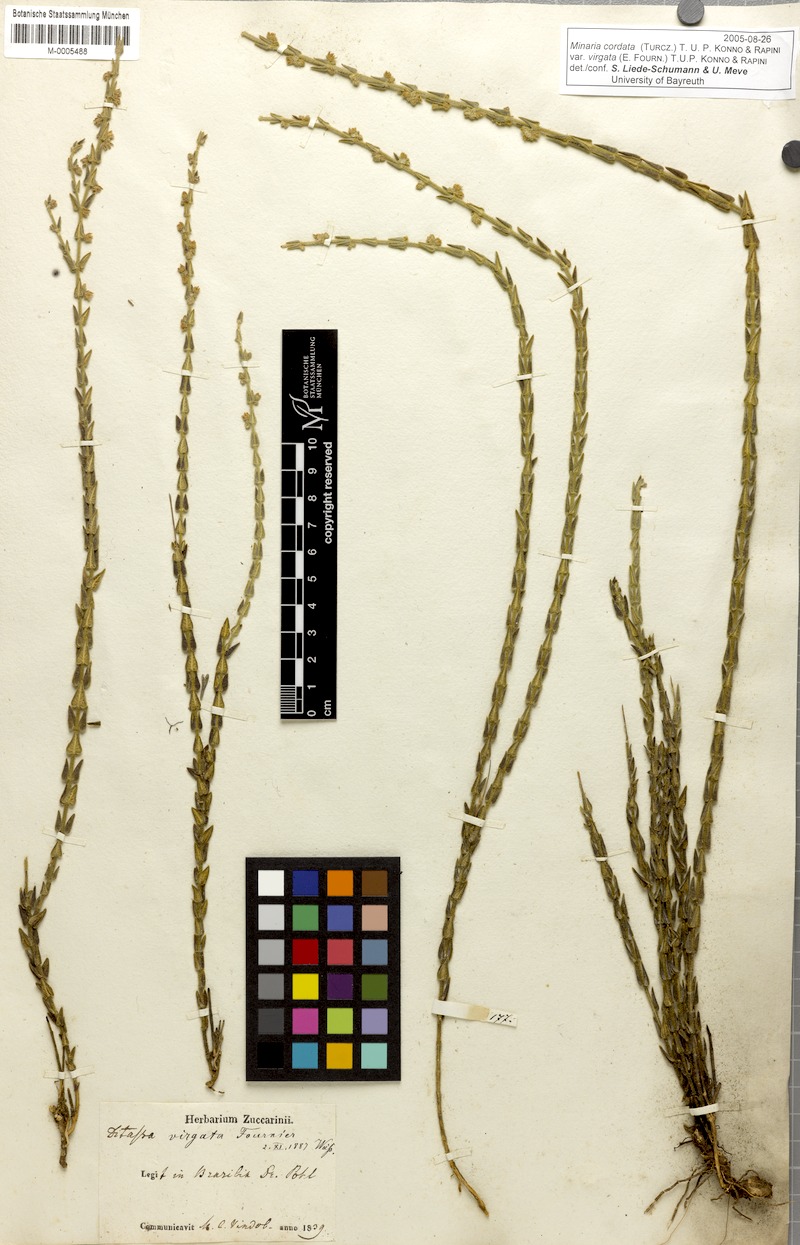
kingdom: Plantae
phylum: Tracheophyta
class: Magnoliopsida
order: Gentianales
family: Apocynaceae
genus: Minaria
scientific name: Minaria cordata
